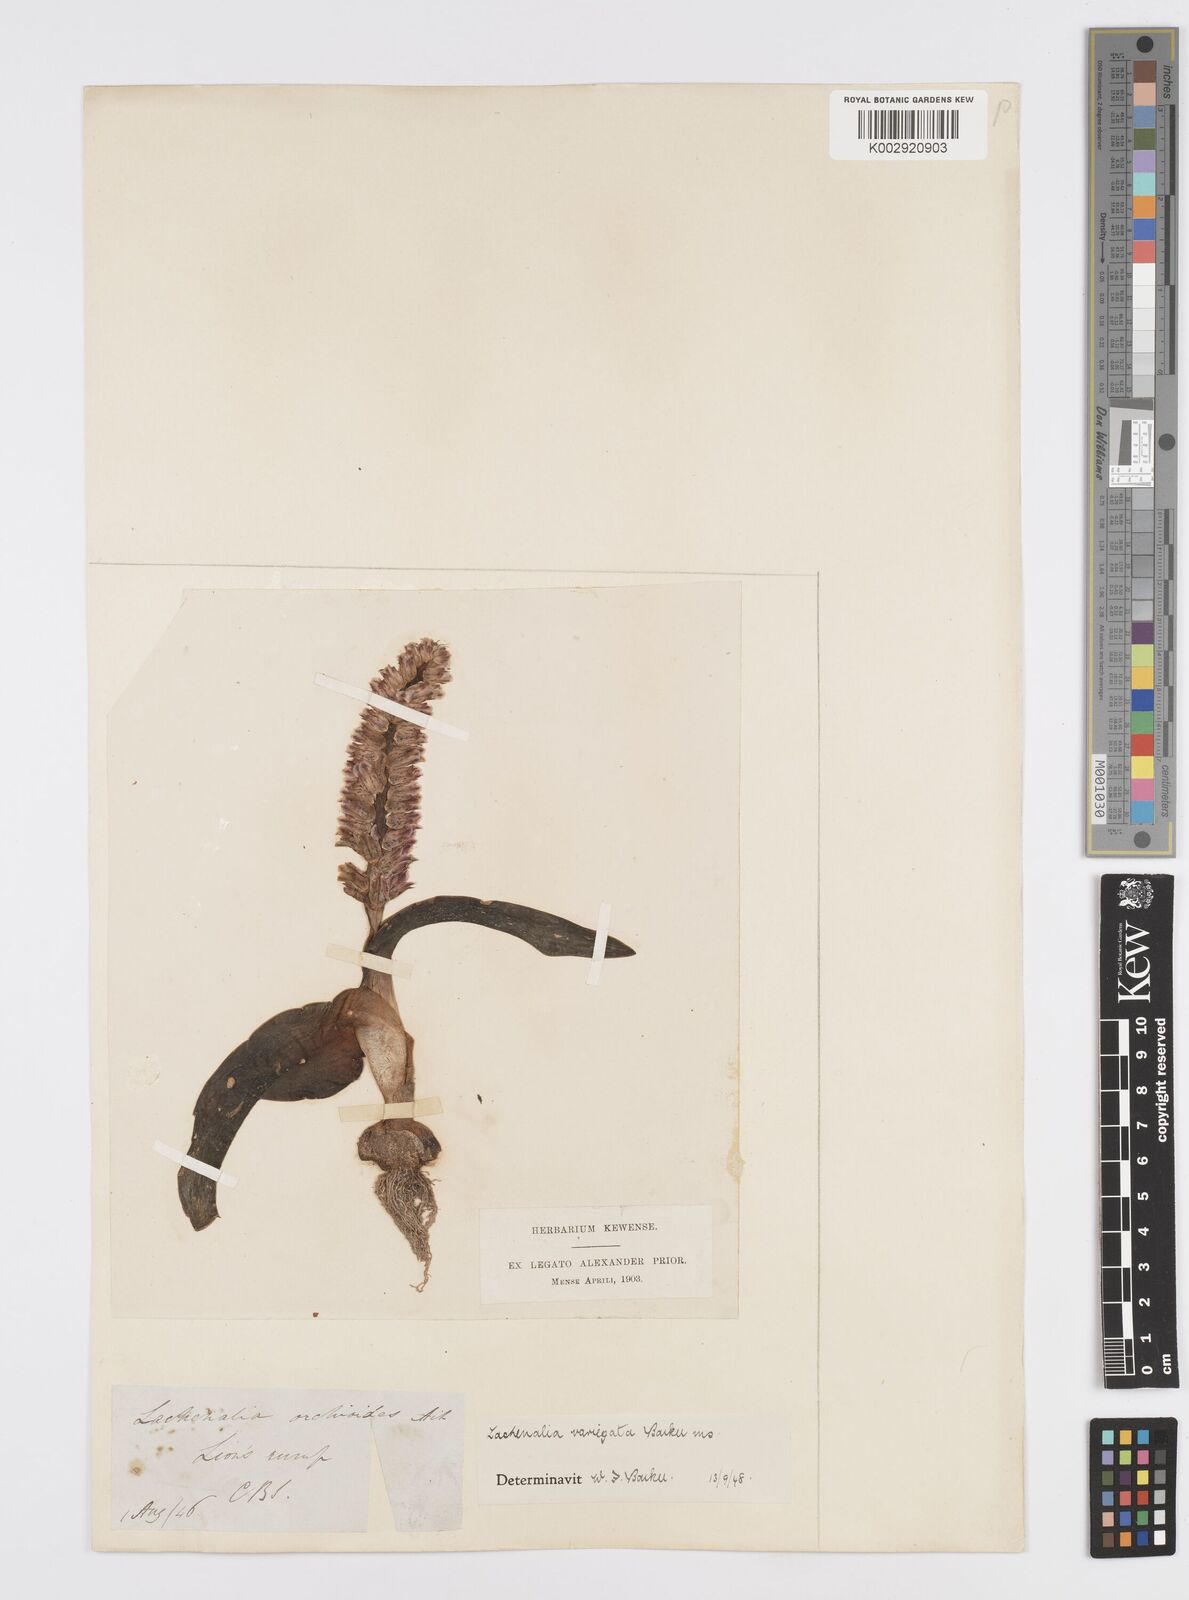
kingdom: Plantae
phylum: Tracheophyta
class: Liliopsida
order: Asparagales
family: Asparagaceae
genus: Lachenalia
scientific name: Lachenalia variegata
